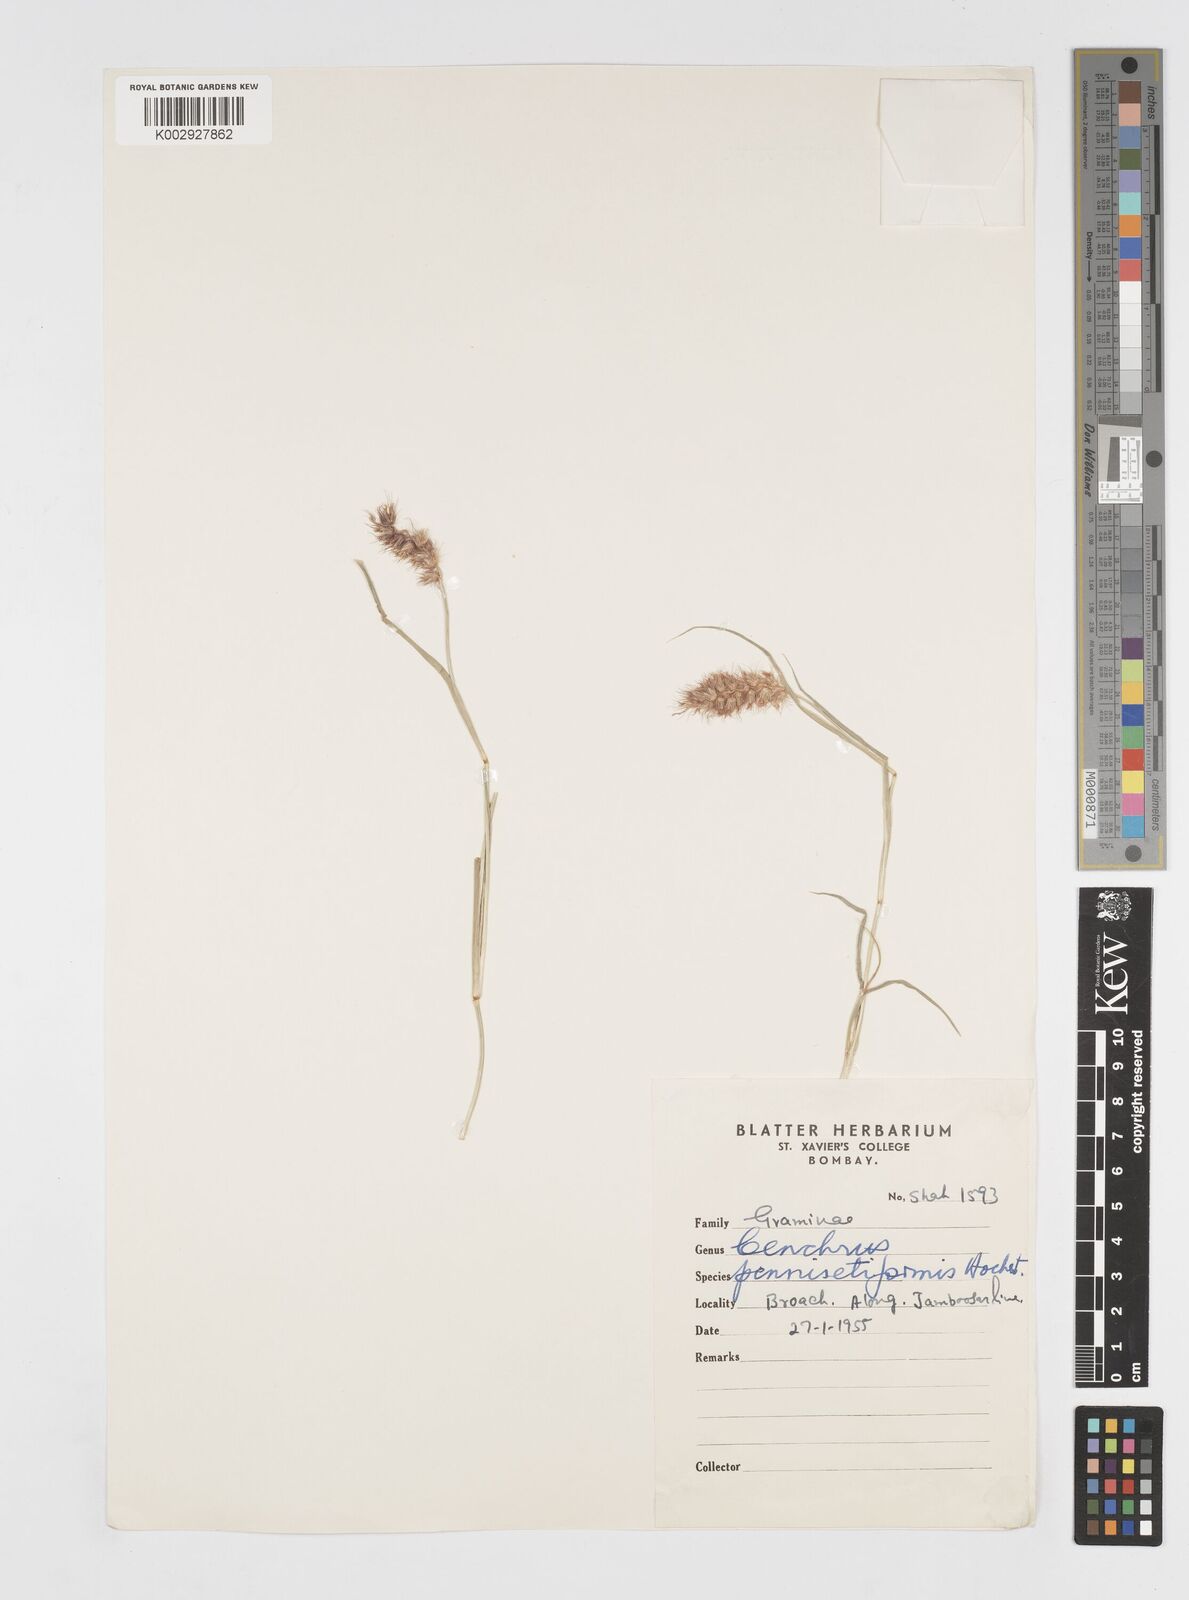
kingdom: Plantae
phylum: Tracheophyta
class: Liliopsida
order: Poales
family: Poaceae
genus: Cenchrus
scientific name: Cenchrus ciliaris
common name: Buffelgrass
